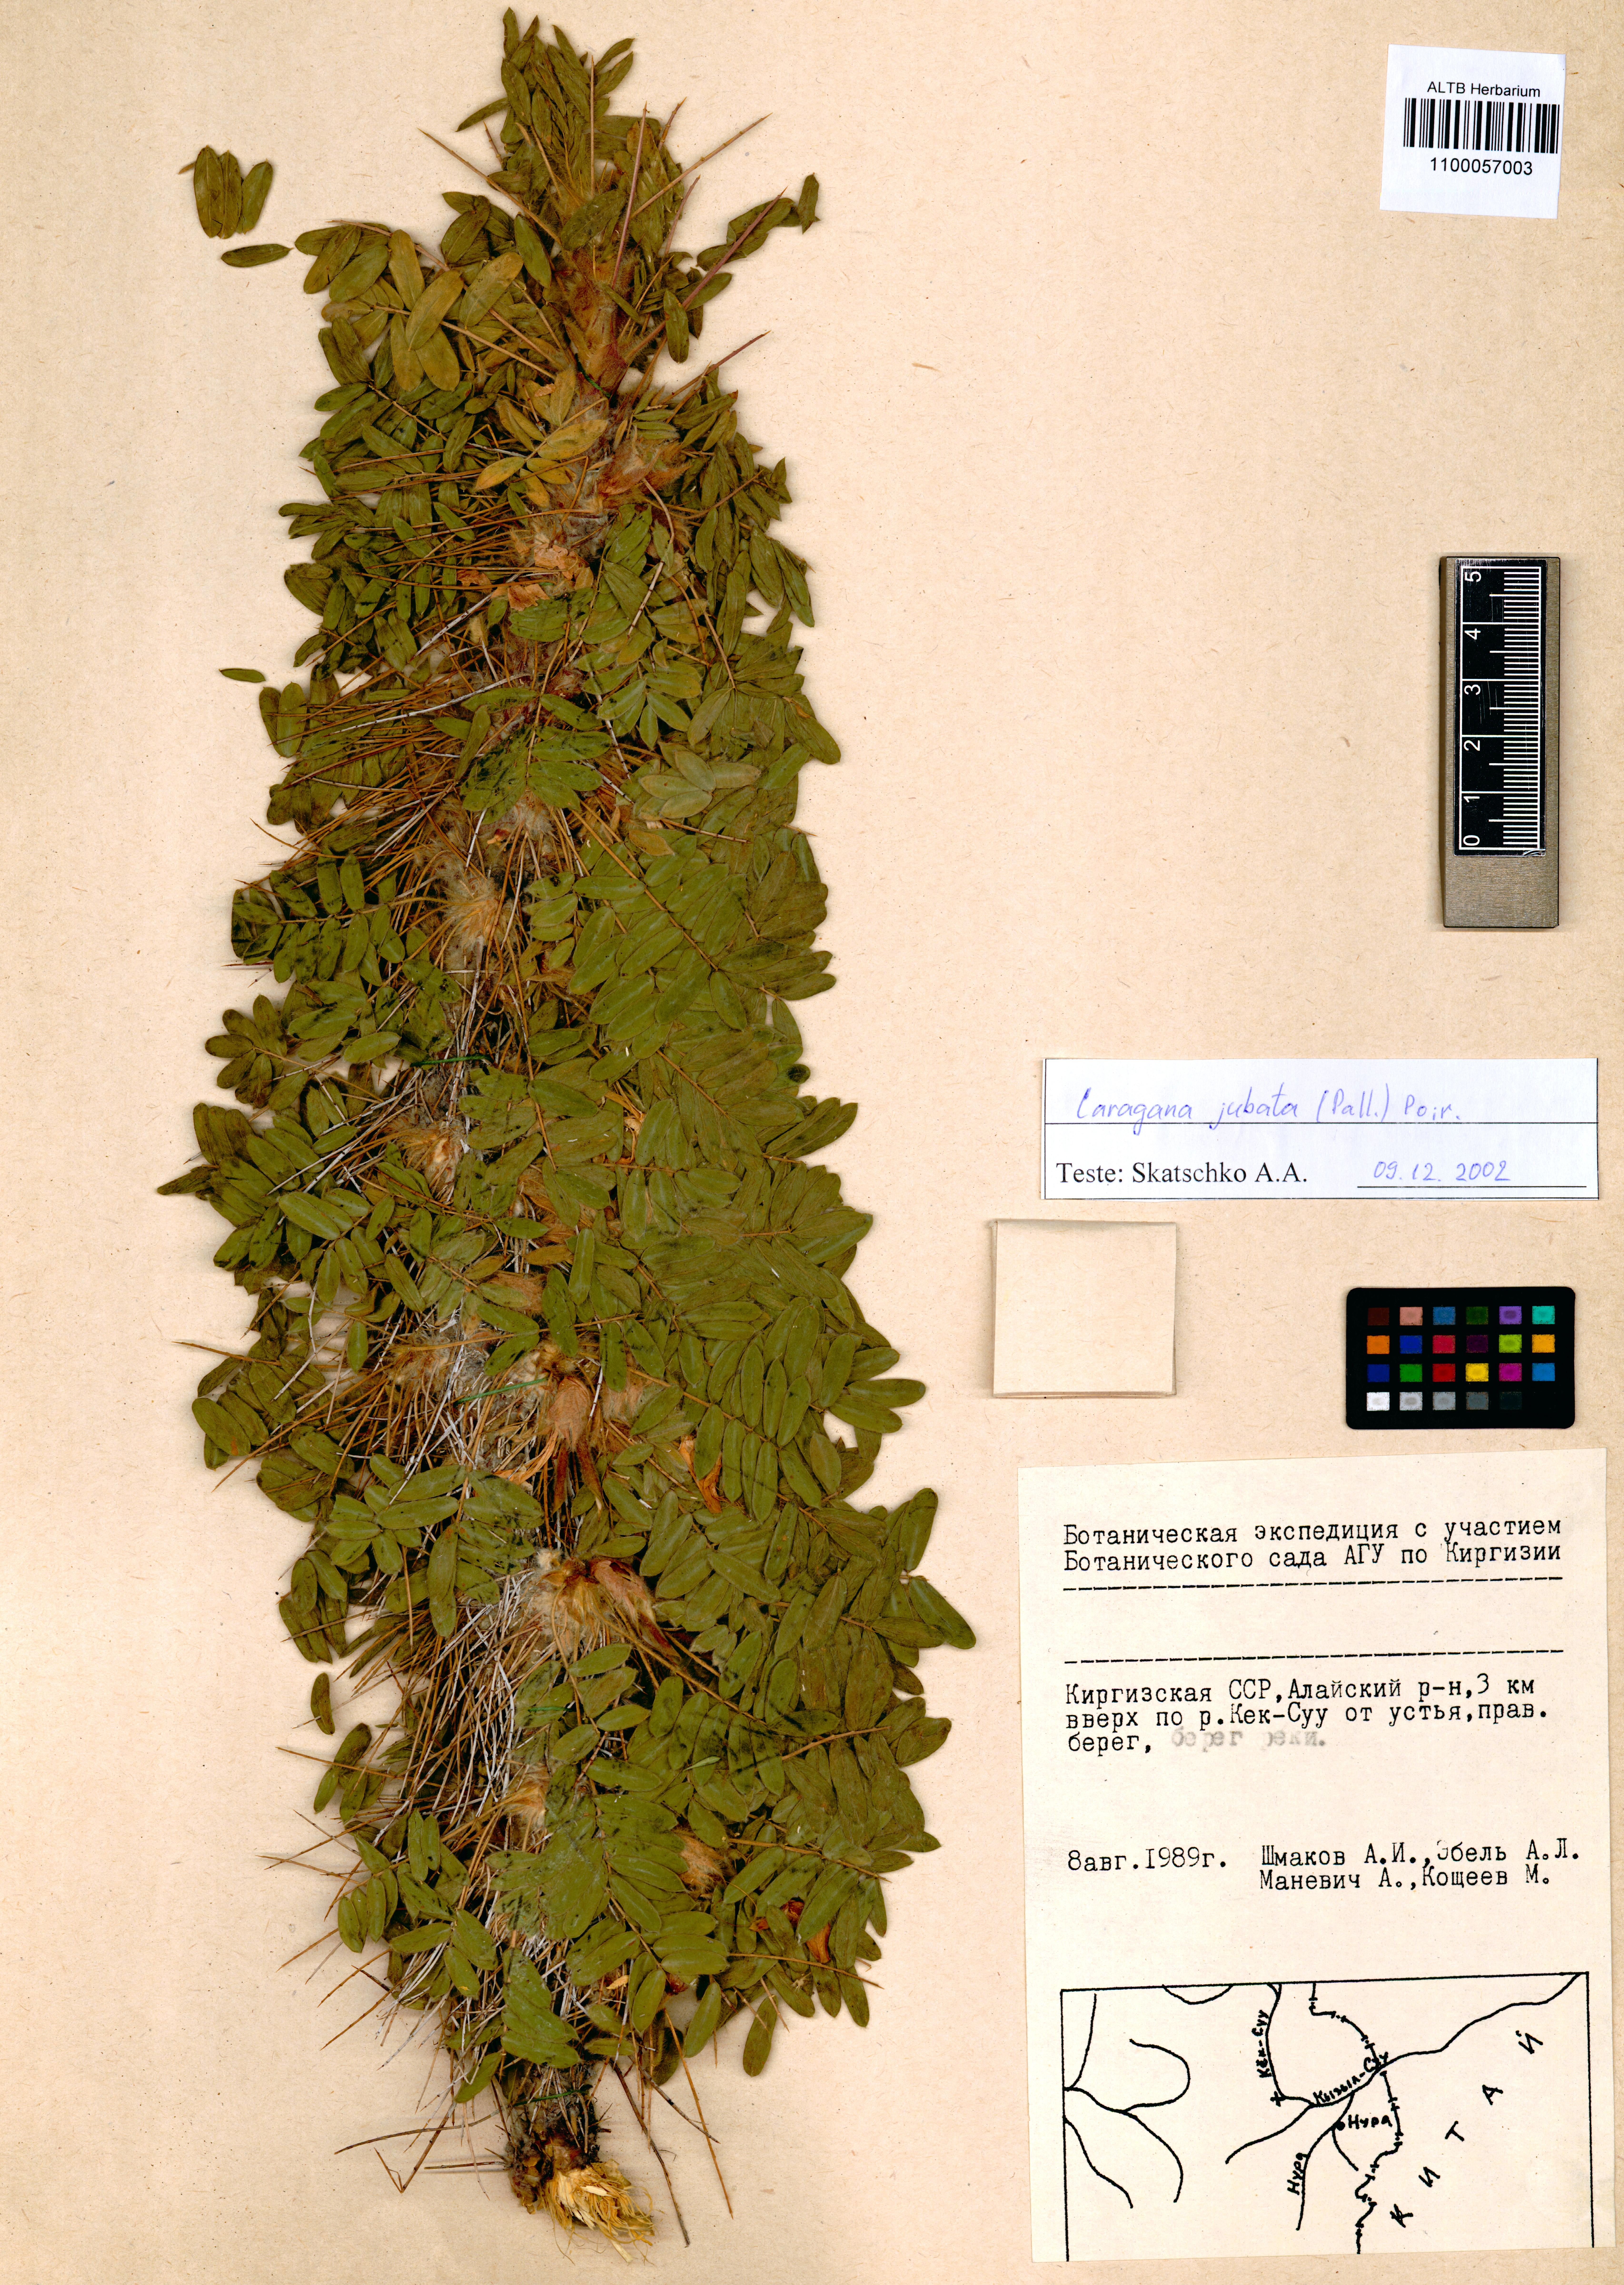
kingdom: Plantae
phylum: Tracheophyta
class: Magnoliopsida
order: Fabales
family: Fabaceae
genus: Caragana
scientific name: Caragana jubata
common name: Shag-spine peashrub
